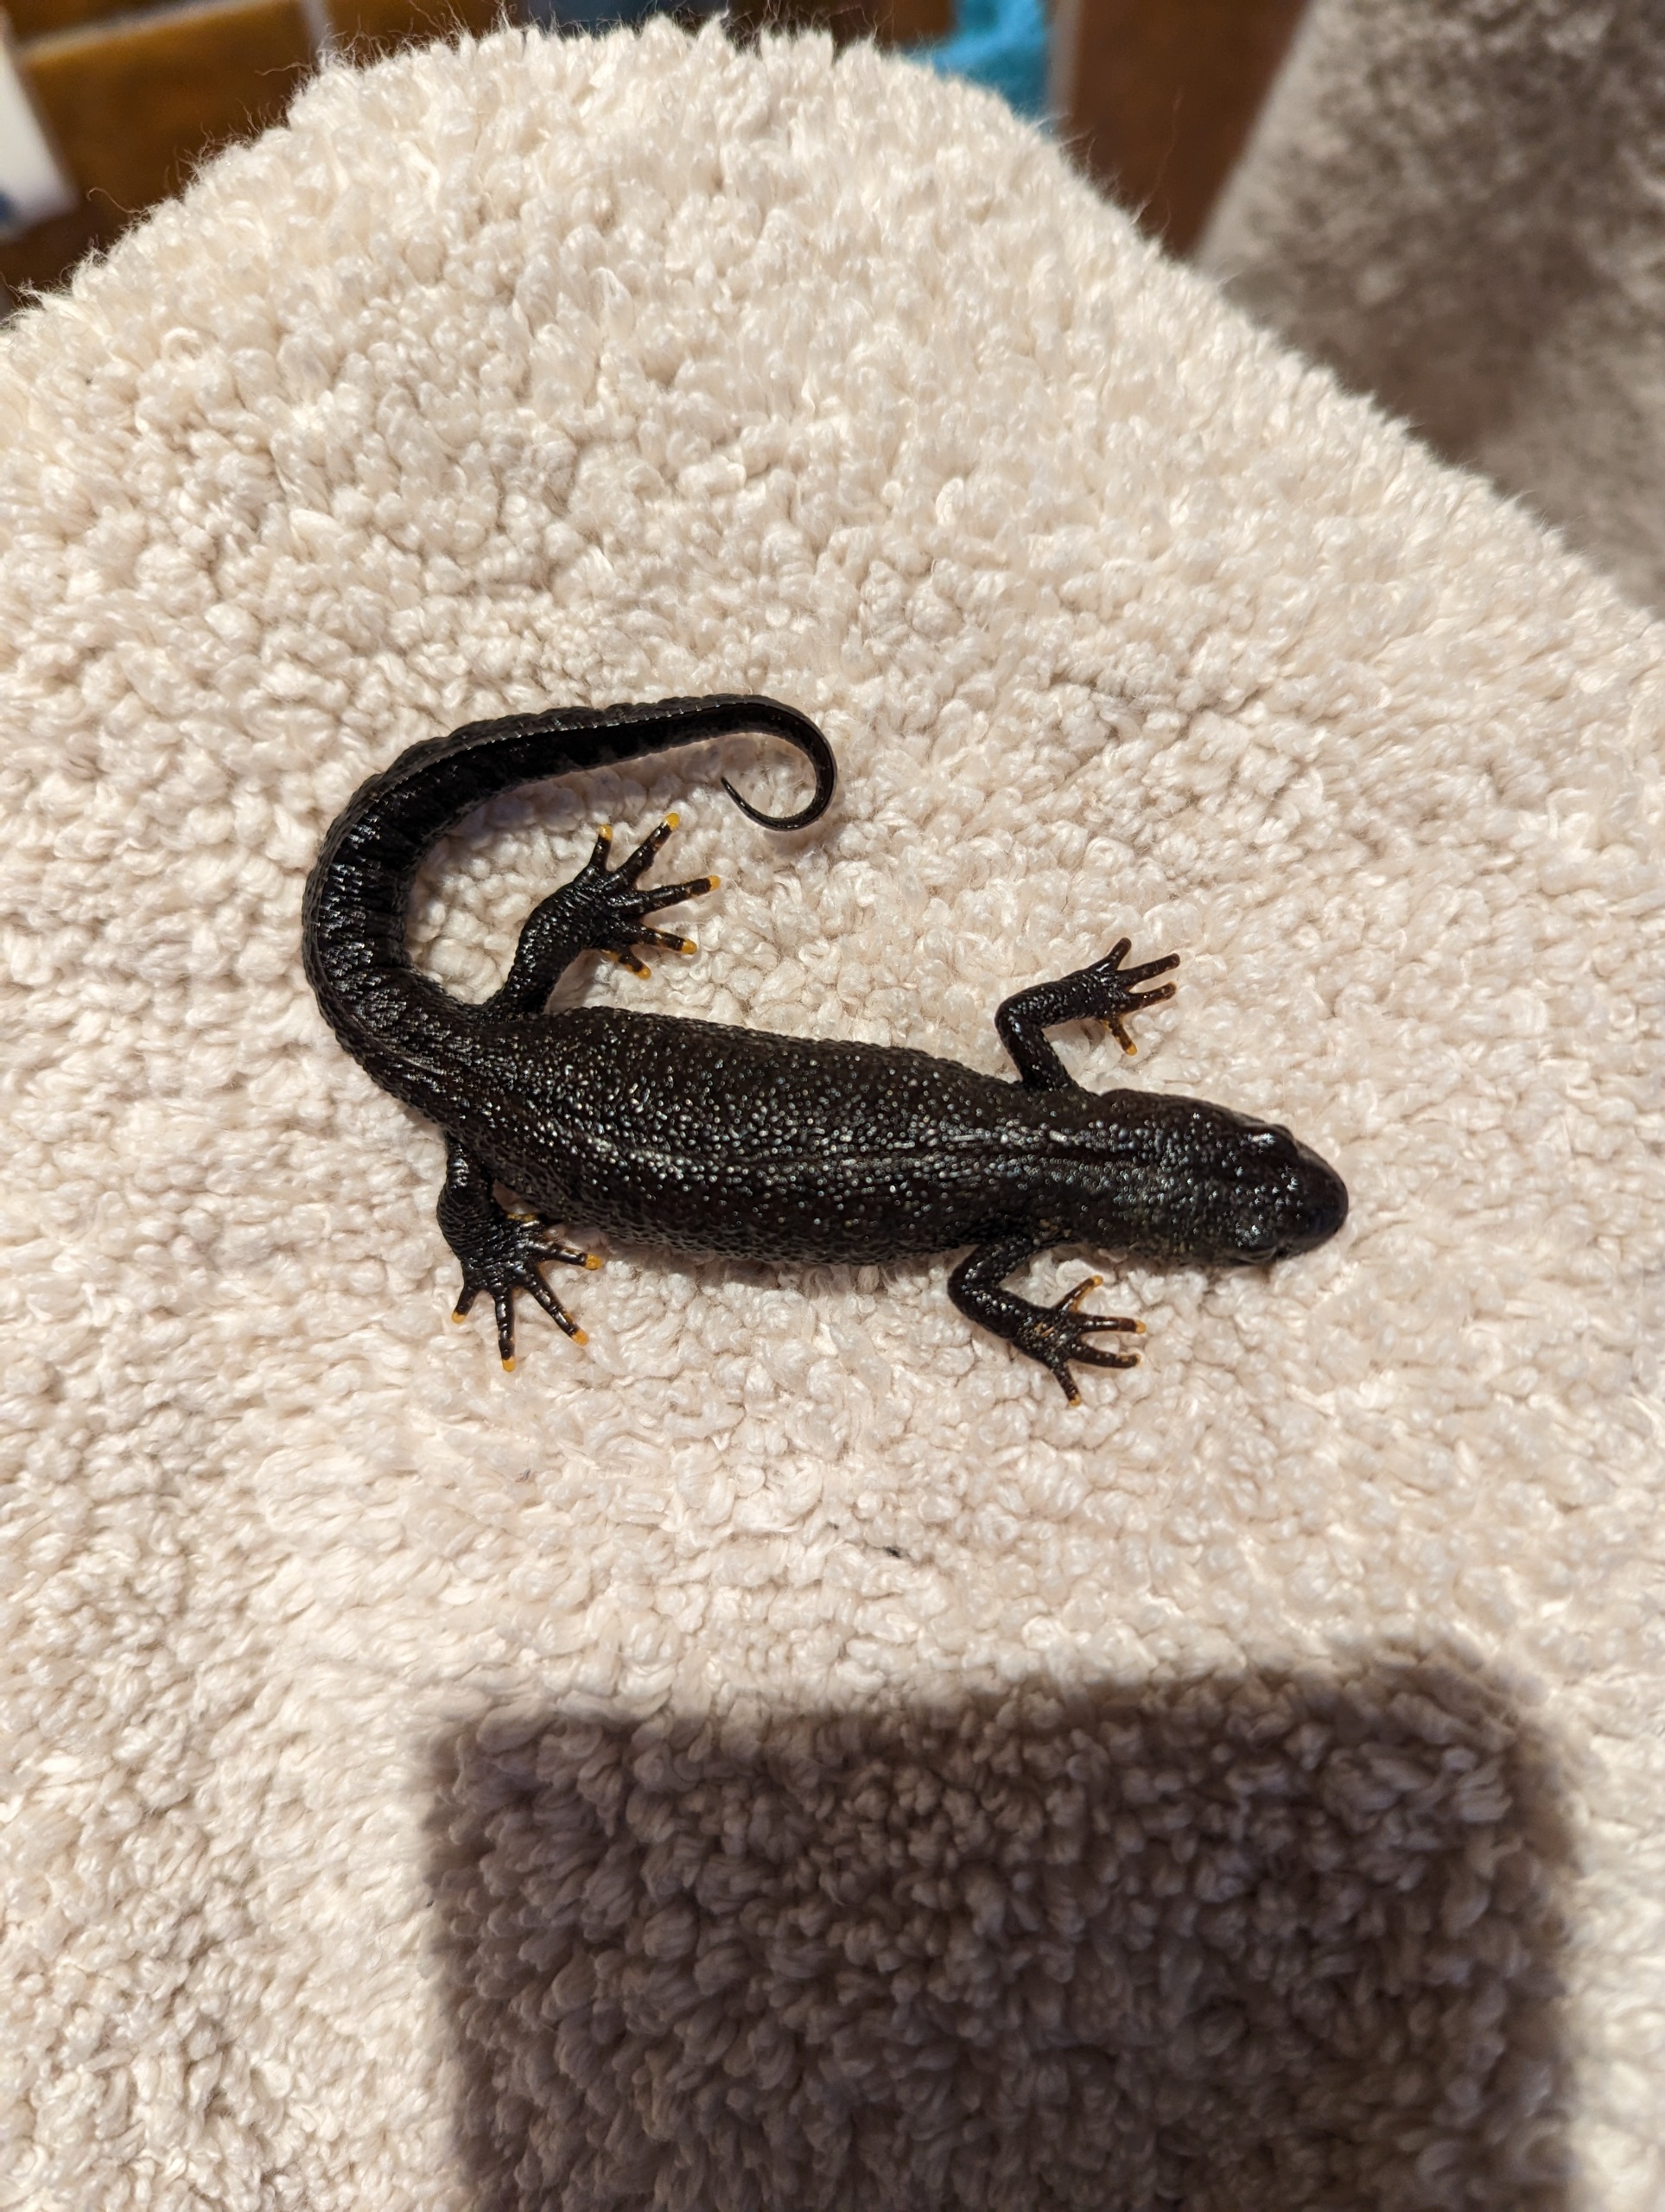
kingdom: Animalia
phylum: Chordata
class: Amphibia
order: Caudata
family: Salamandridae
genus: Triturus
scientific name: Triturus cristatus
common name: Stor vandsalamander
